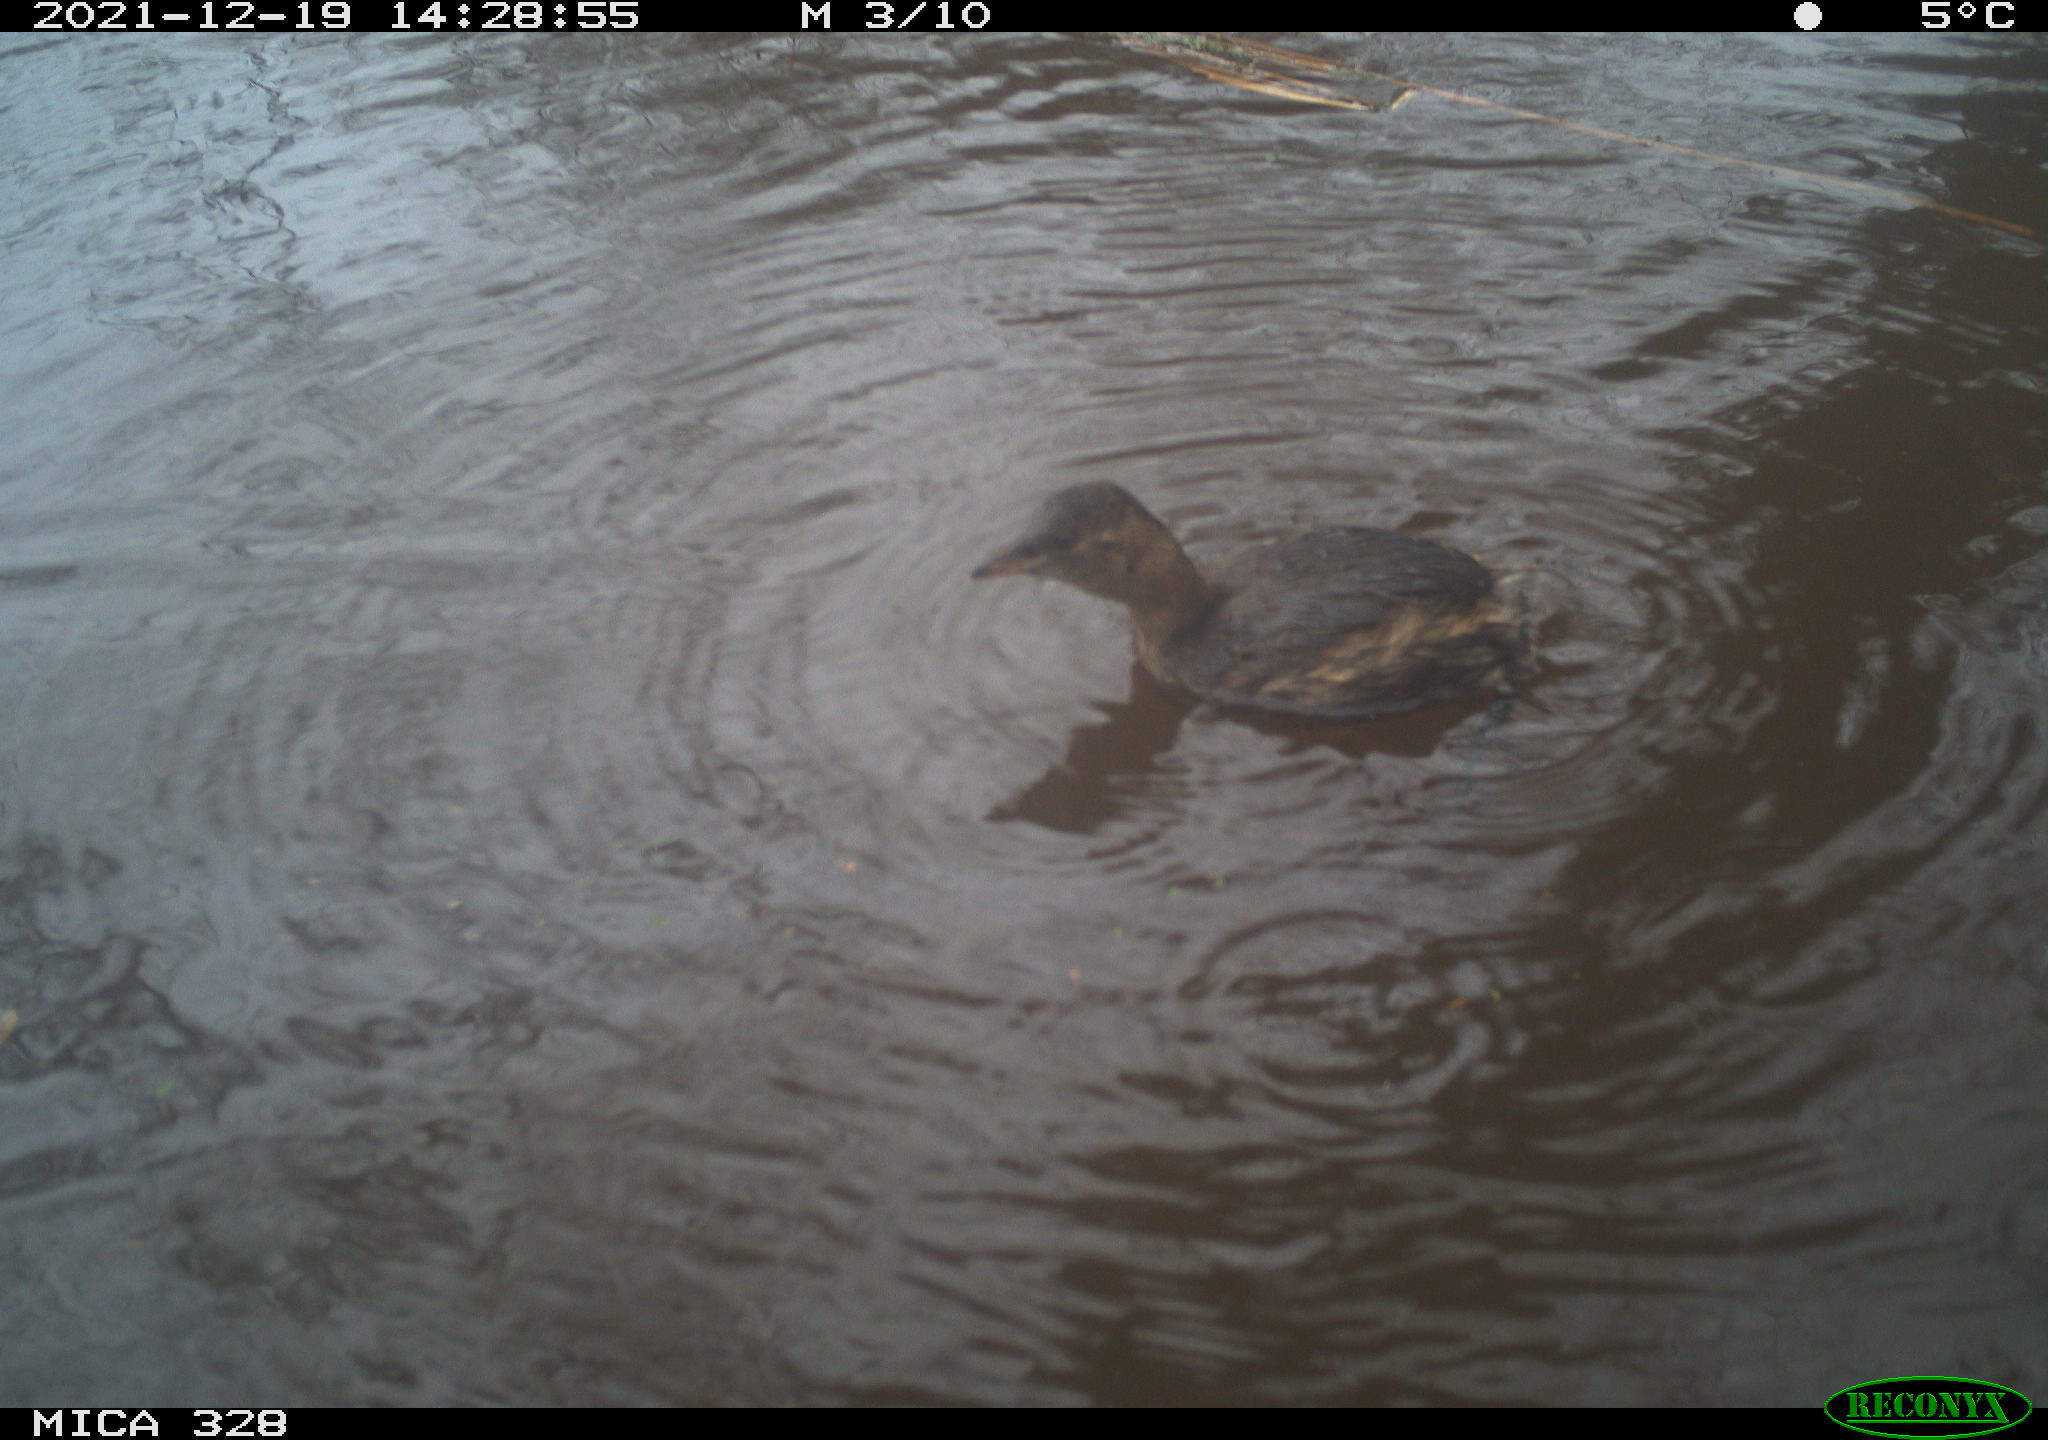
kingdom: Animalia
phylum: Chordata
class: Aves
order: Gruiformes
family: Rallidae
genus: Gallinula
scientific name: Gallinula chloropus
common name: Common moorhen
